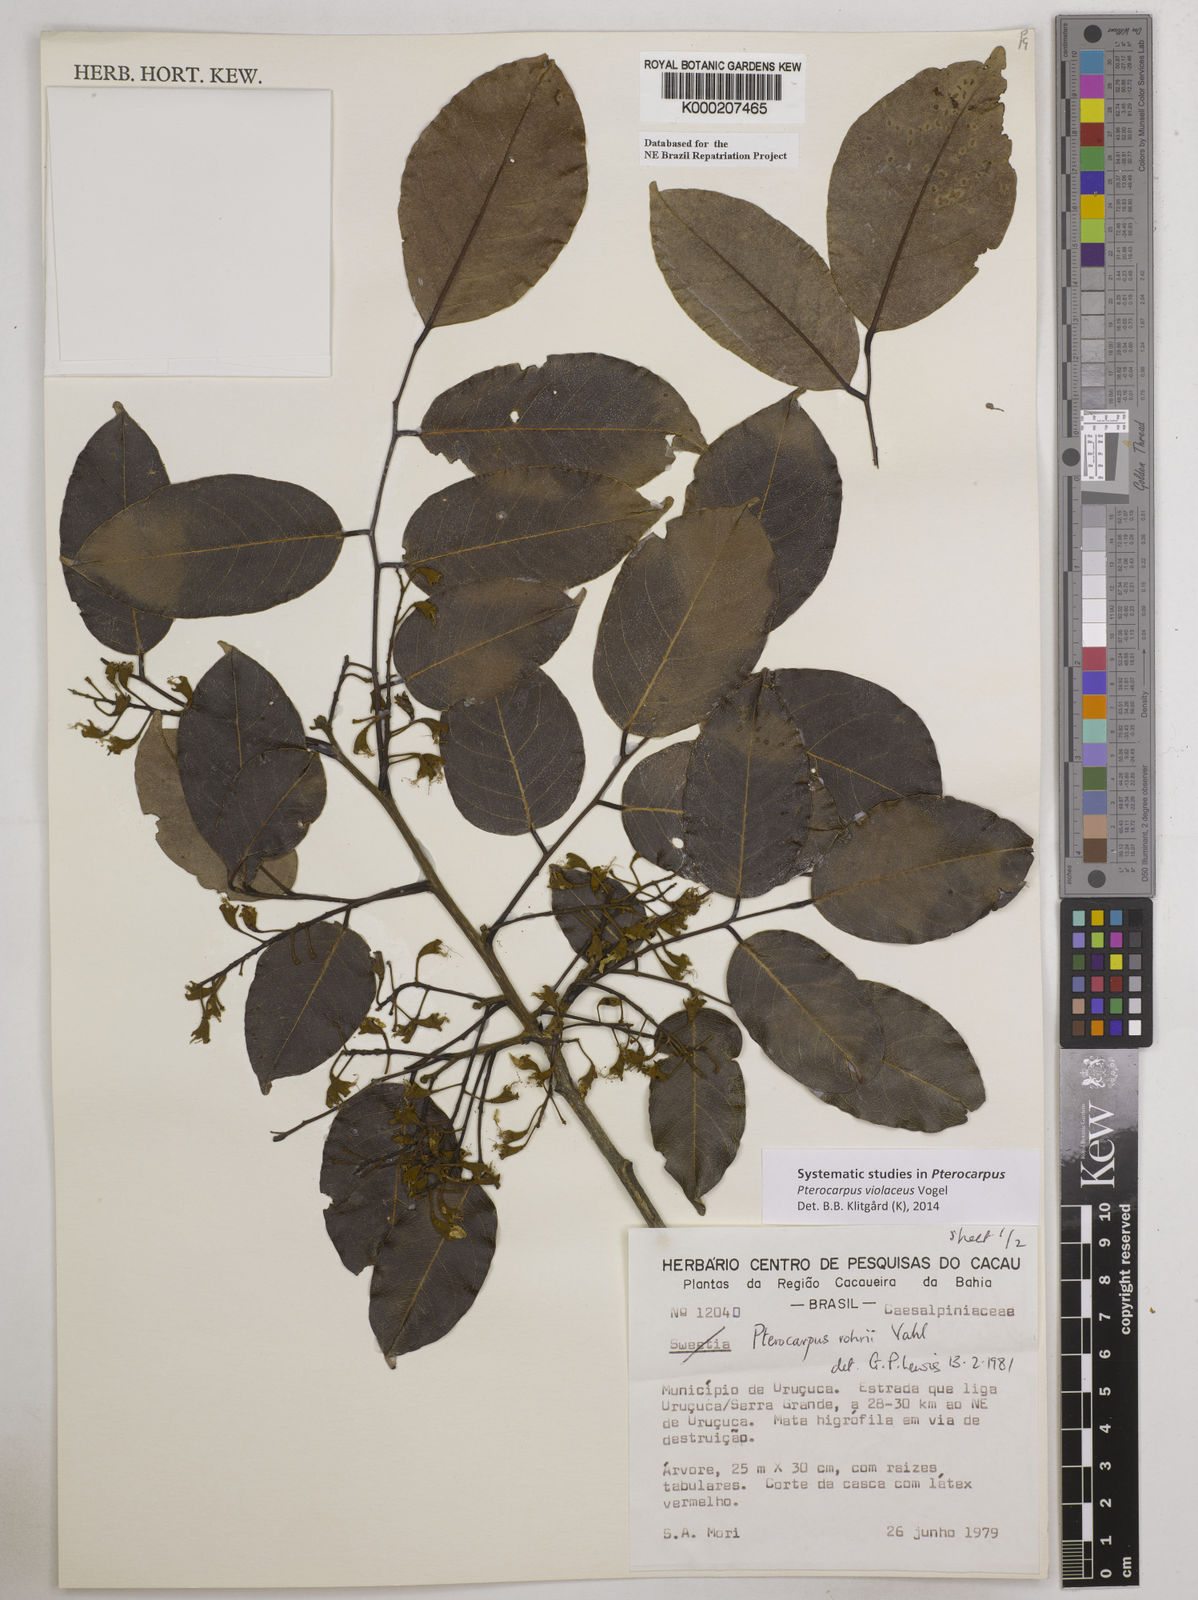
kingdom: Plantae
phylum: Tracheophyta
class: Magnoliopsida
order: Fabales
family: Fabaceae
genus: Pterocarpus
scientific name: Pterocarpus rohrii
